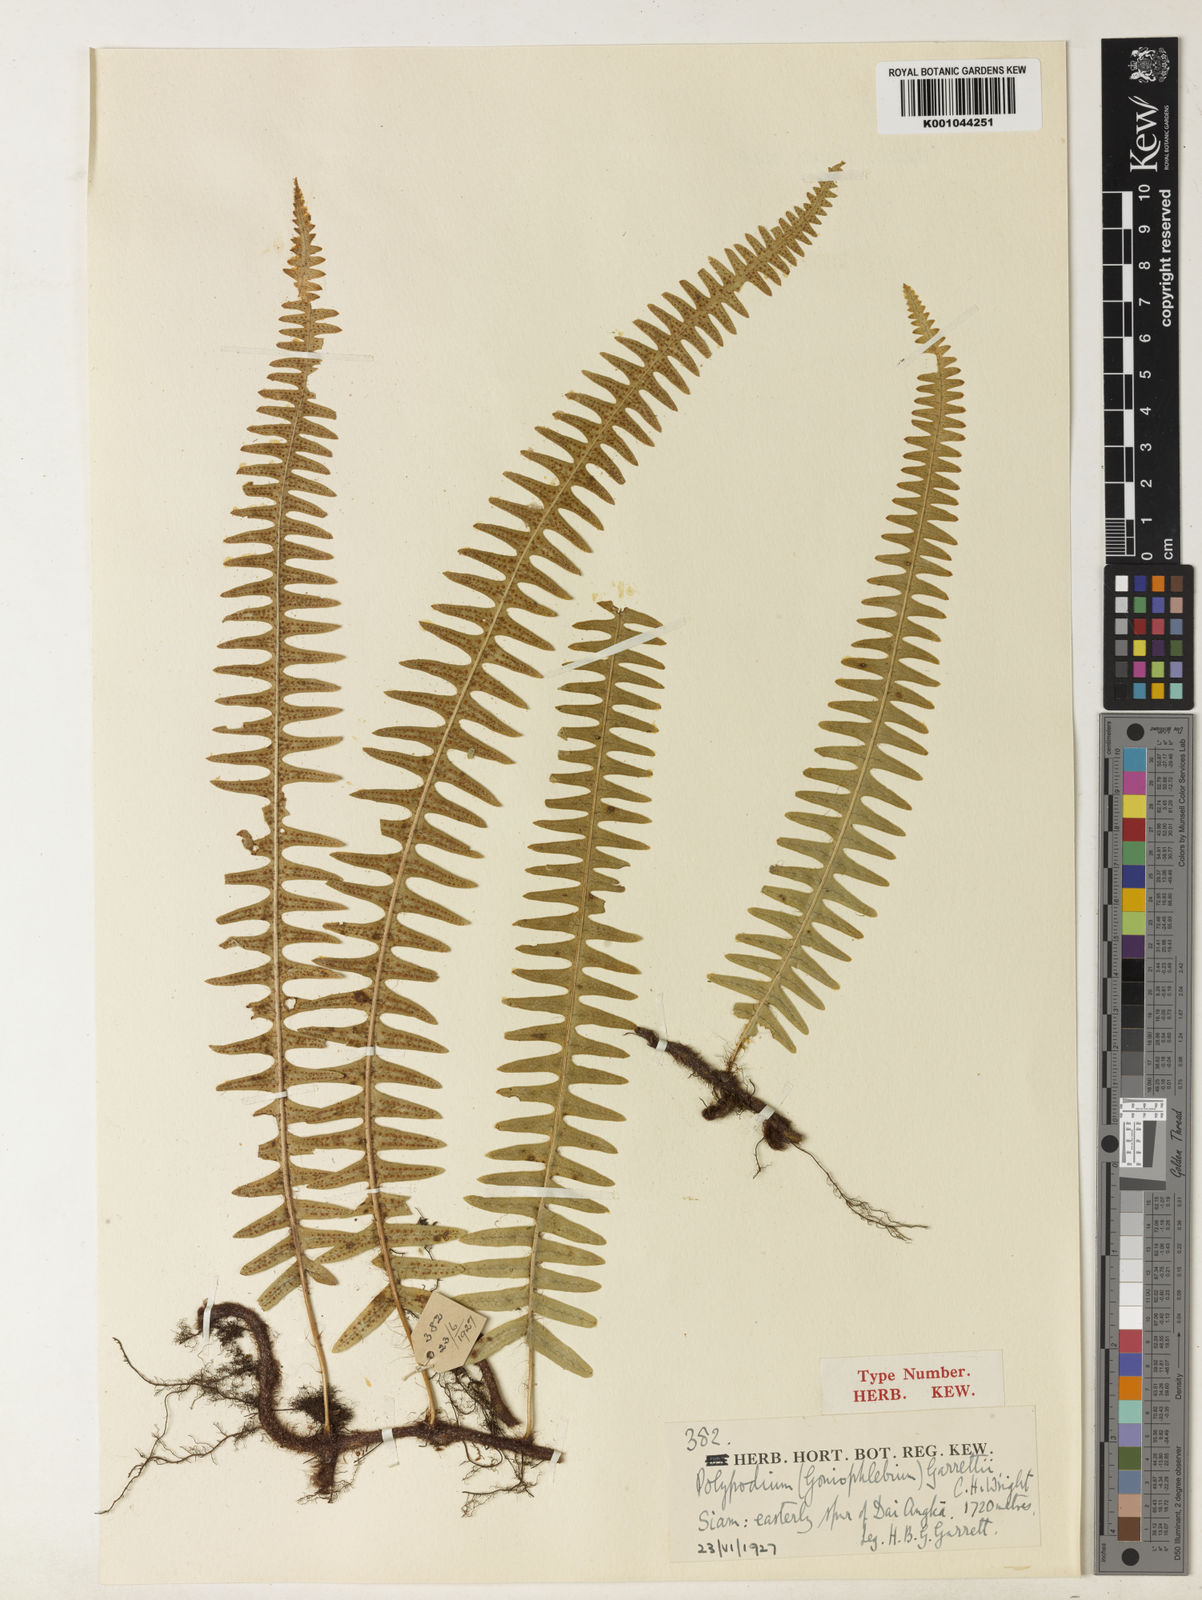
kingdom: Plantae
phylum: Tracheophyta
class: Polypodiopsida
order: Polypodiales
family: Polypodiaceae
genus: Goniophlebium
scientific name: Goniophlebium lachnopus
